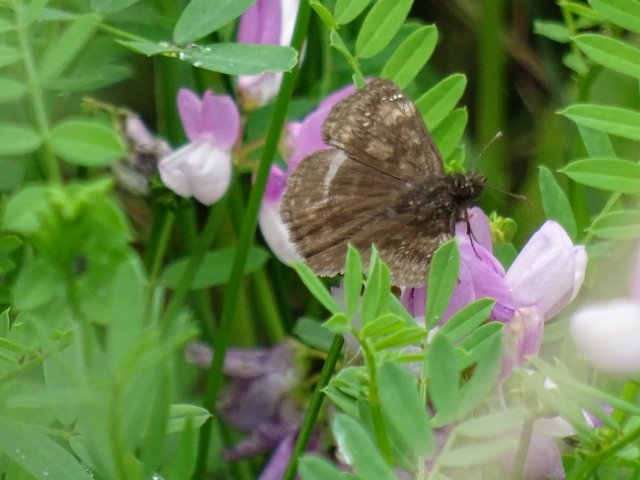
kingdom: Animalia
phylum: Arthropoda
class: Insecta
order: Lepidoptera
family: Hesperiidae
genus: Gesta
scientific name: Gesta
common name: Wild Indigo Duskywing
